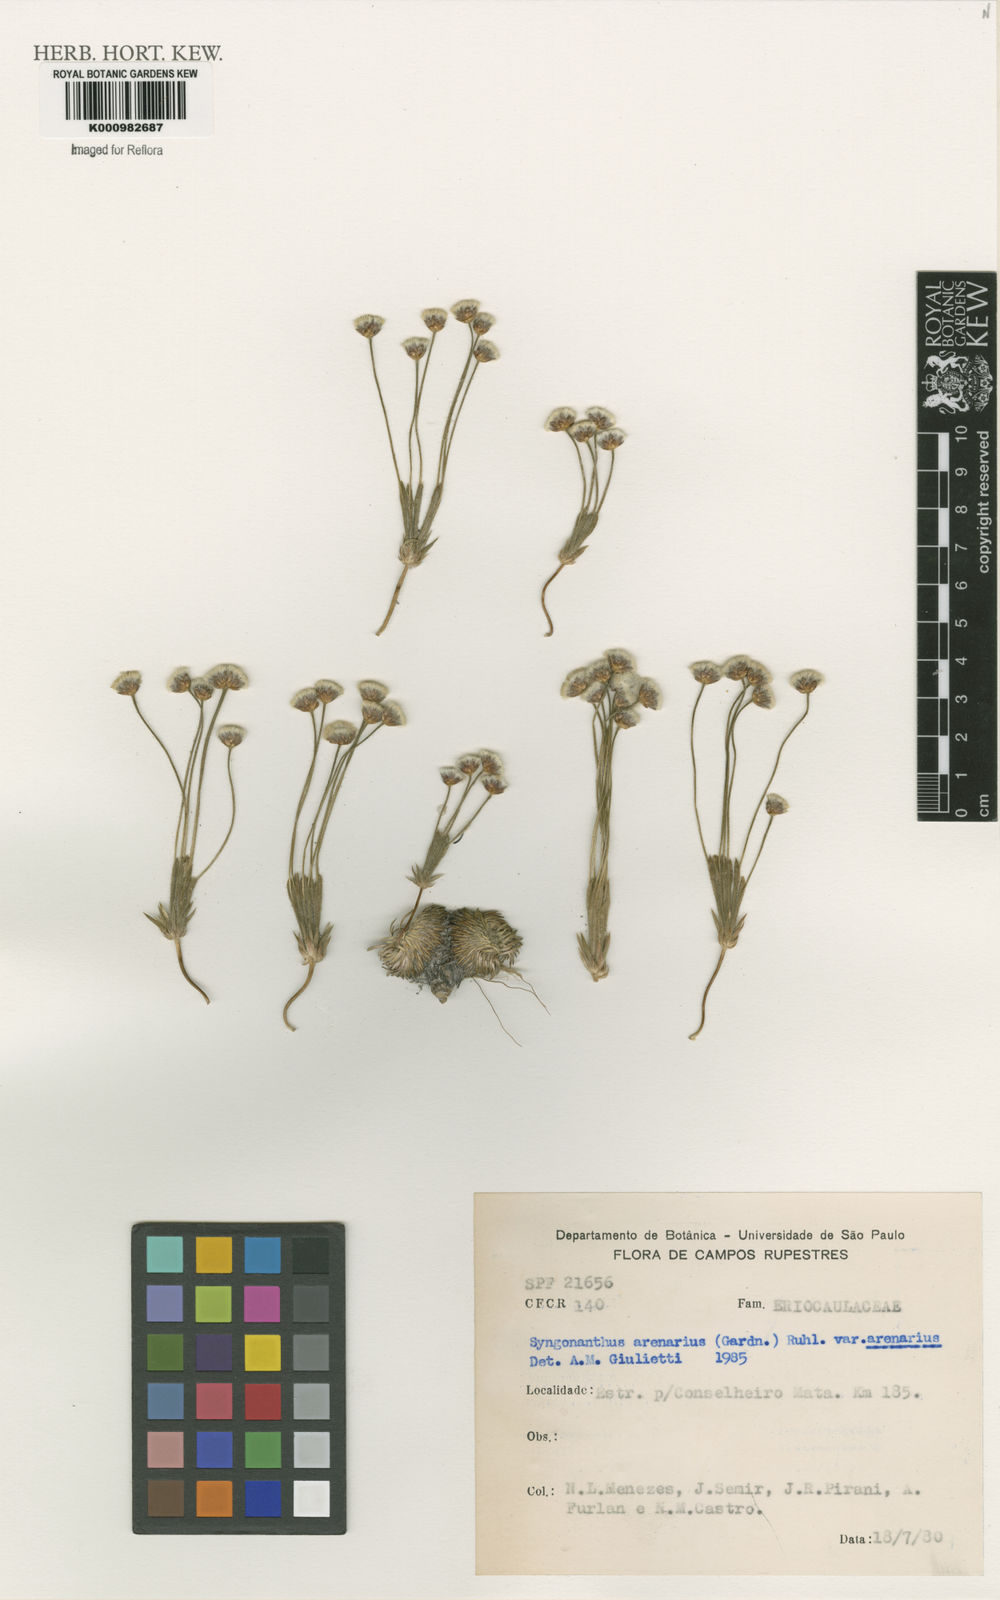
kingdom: Plantae
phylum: Tracheophyta
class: Liliopsida
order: Poales
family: Eriocaulaceae
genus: Syngonanthus
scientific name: Syngonanthus arenarius
